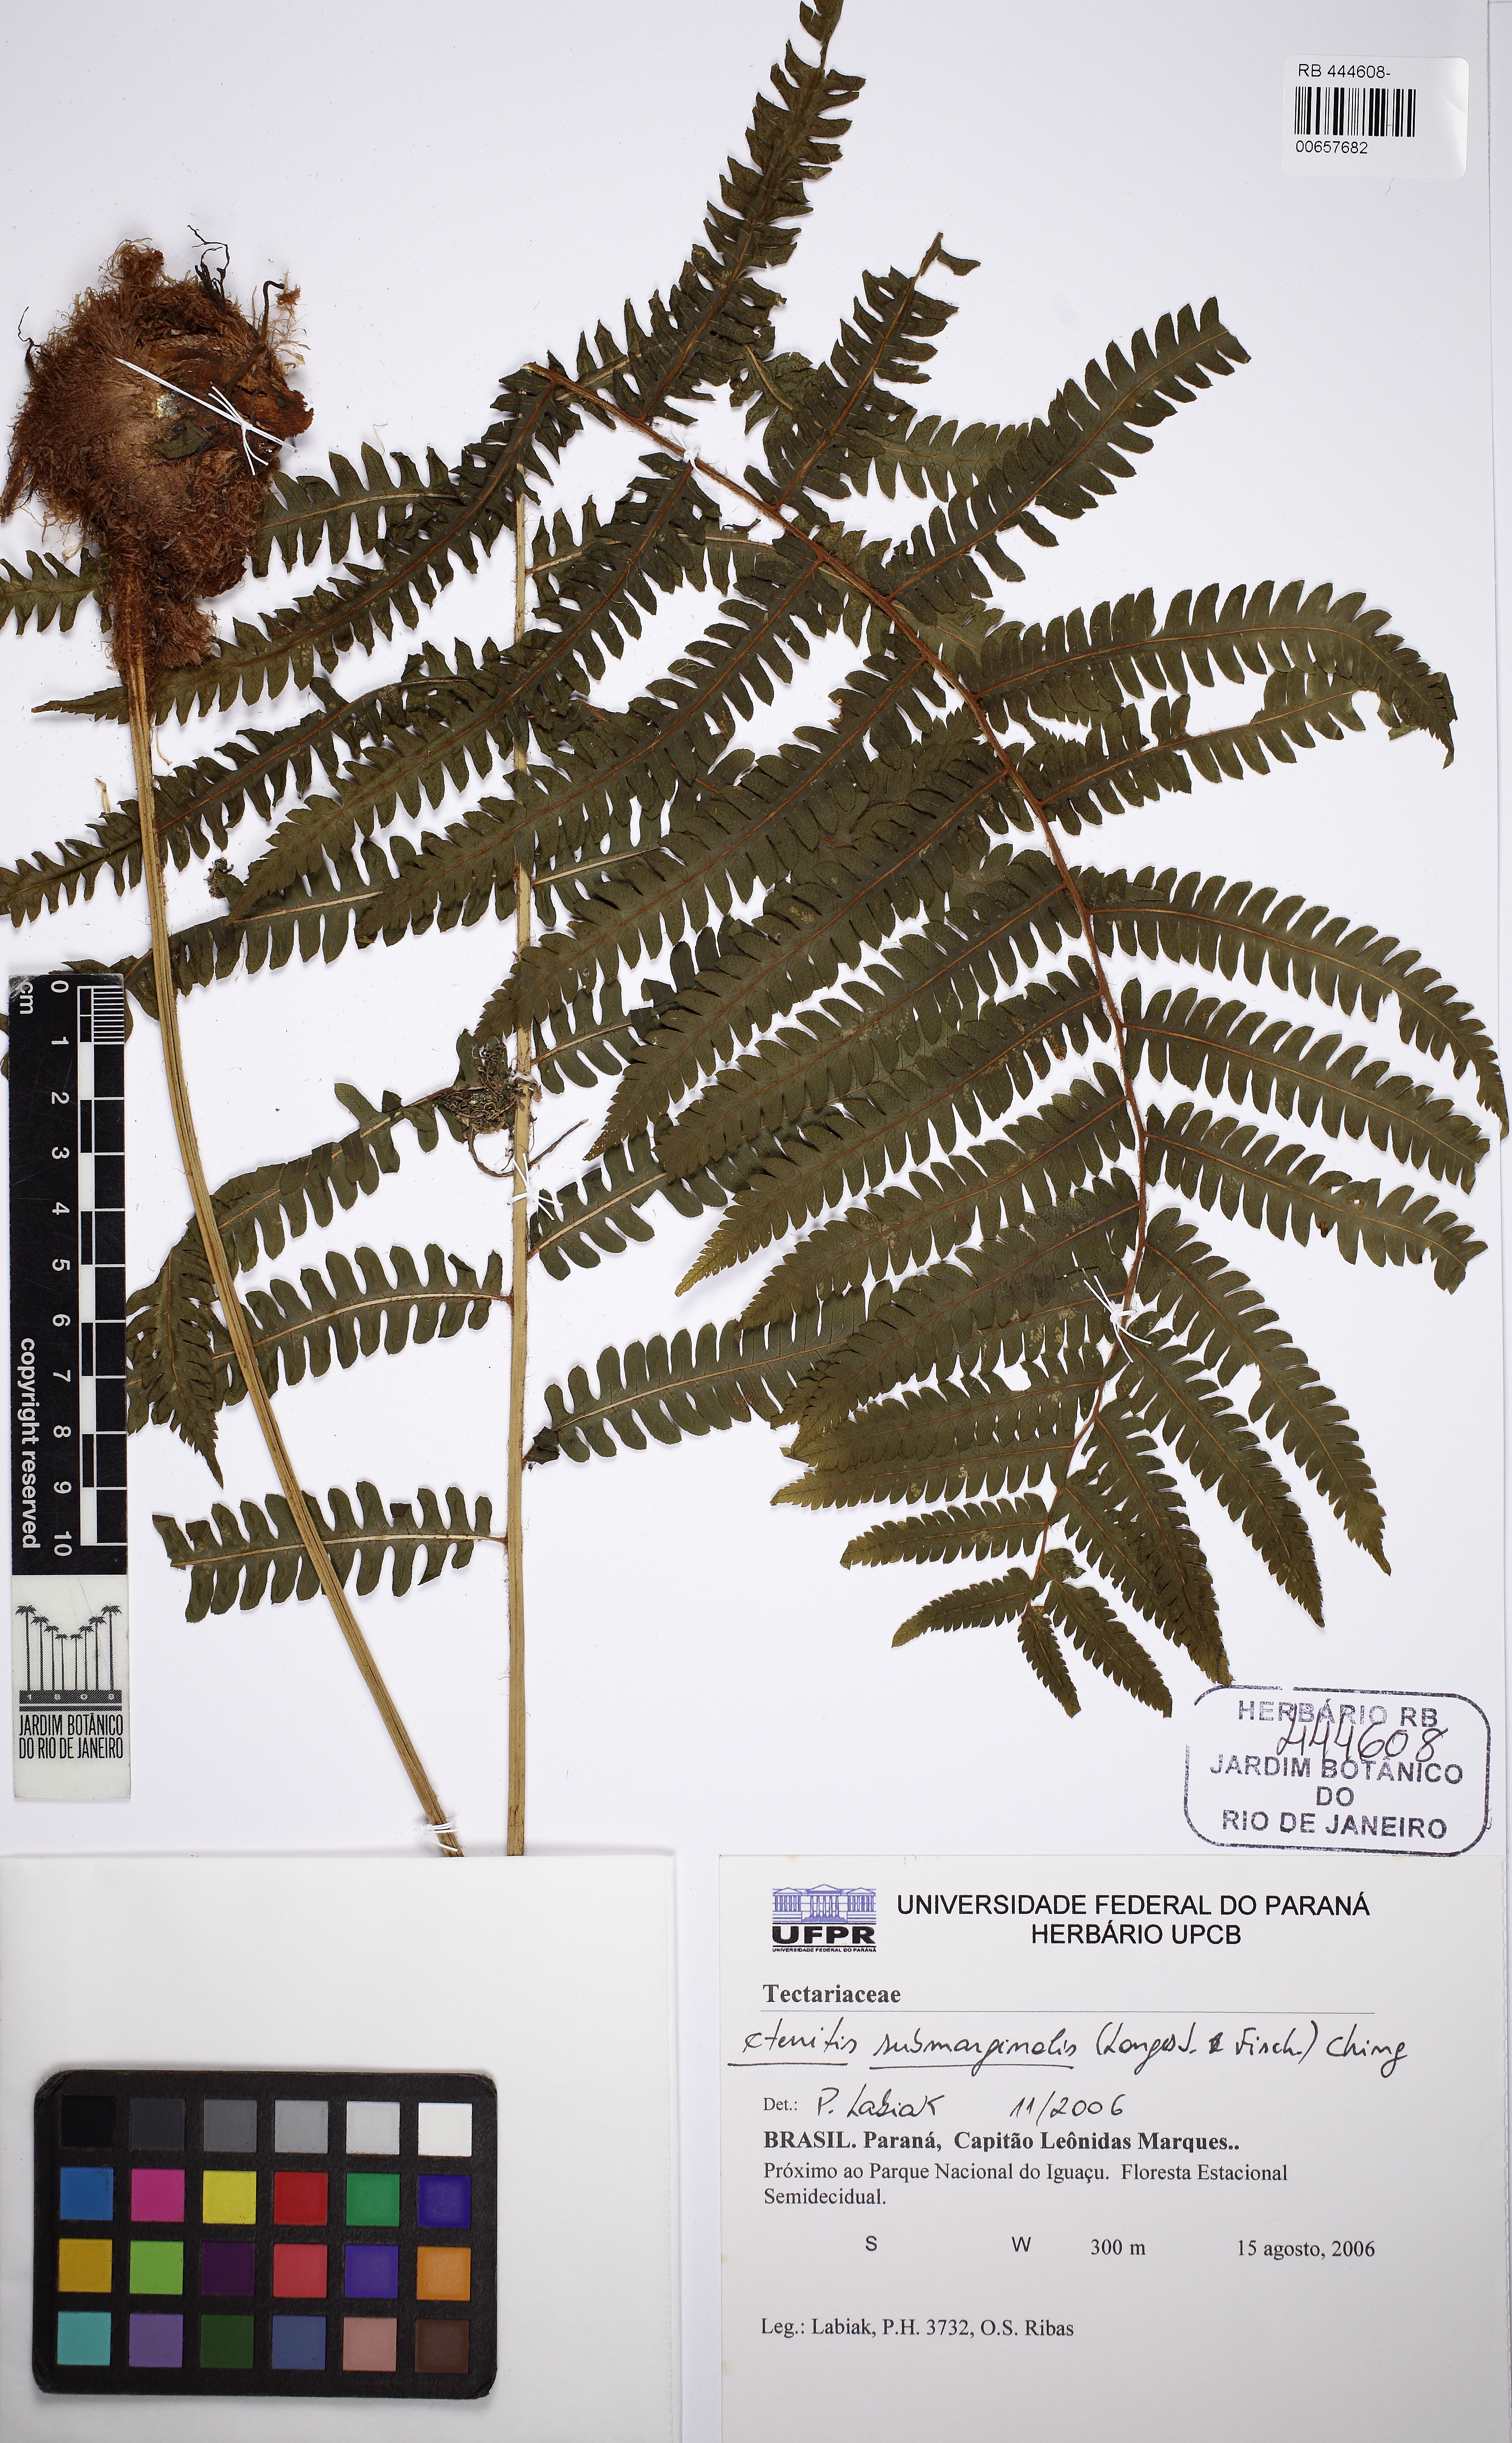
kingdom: Plantae
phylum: Tracheophyta
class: Polypodiopsida
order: Polypodiales
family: Dryopteridaceae
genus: Ctenitis
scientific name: Ctenitis submarginalis
